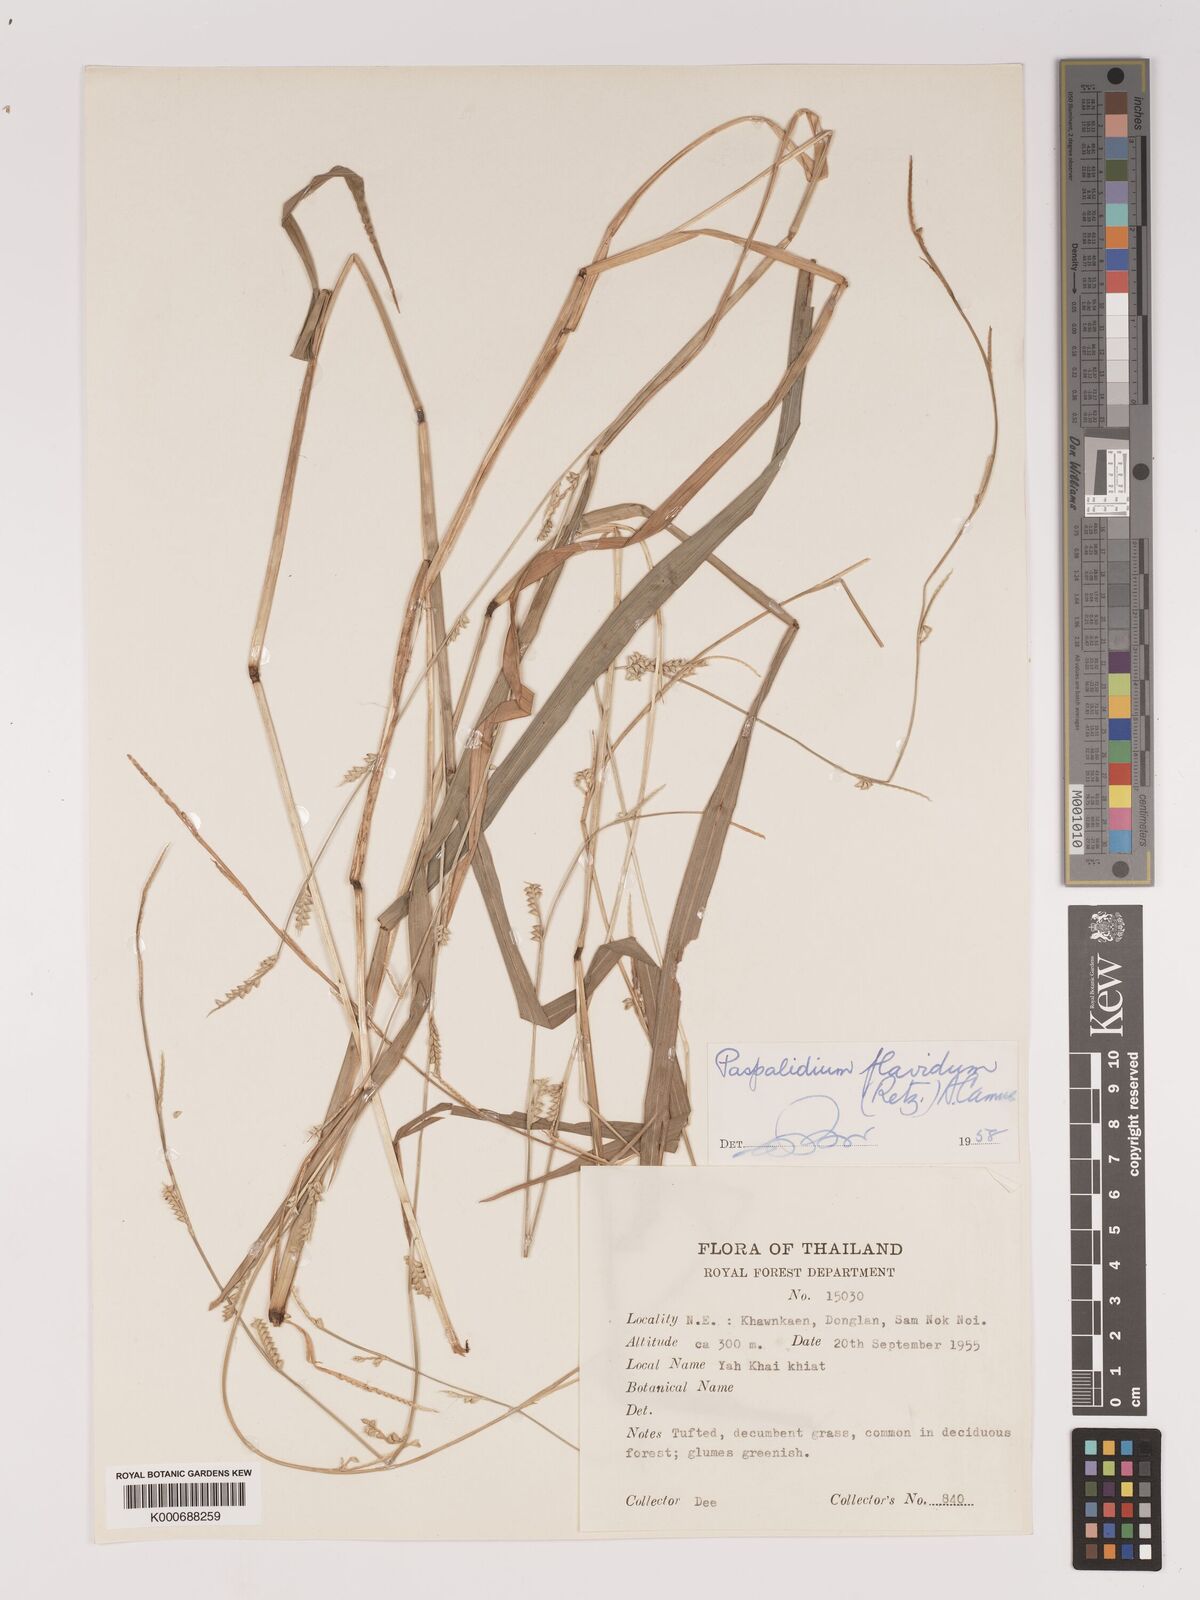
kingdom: Plantae
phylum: Tracheophyta
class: Liliopsida
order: Poales
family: Poaceae
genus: Setaria
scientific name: Setaria flavida
